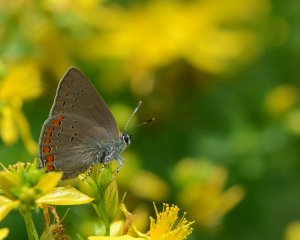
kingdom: Animalia
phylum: Arthropoda
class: Insecta
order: Lepidoptera
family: Lycaenidae
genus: Harkenclenus
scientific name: Harkenclenus titus
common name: Coral Hairstreak
